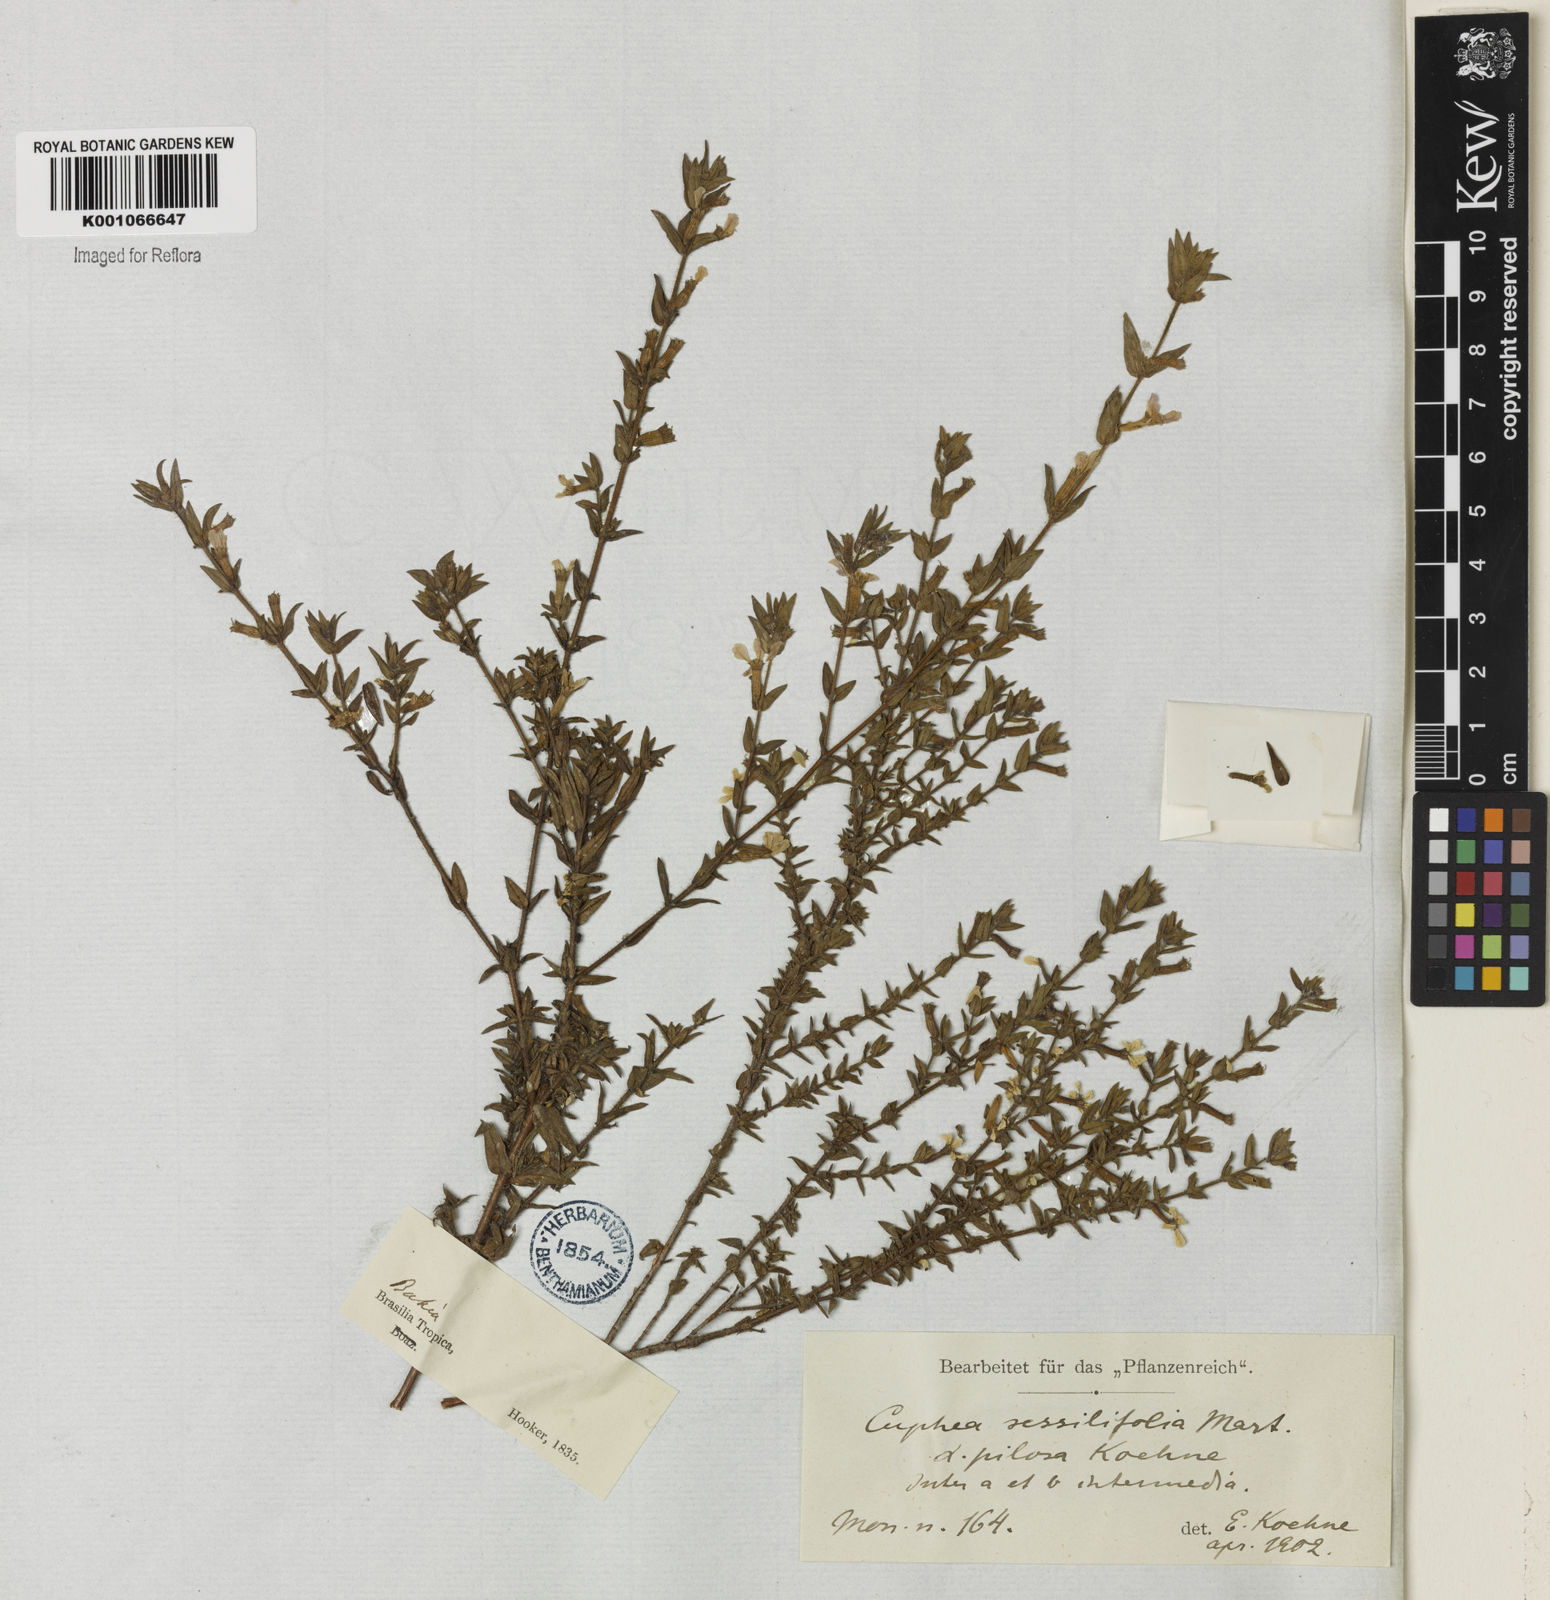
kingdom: Plantae
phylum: Tracheophyta
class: Magnoliopsida
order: Myrtales
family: Lythraceae
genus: Cuphea
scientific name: Cuphea sessilifolia
